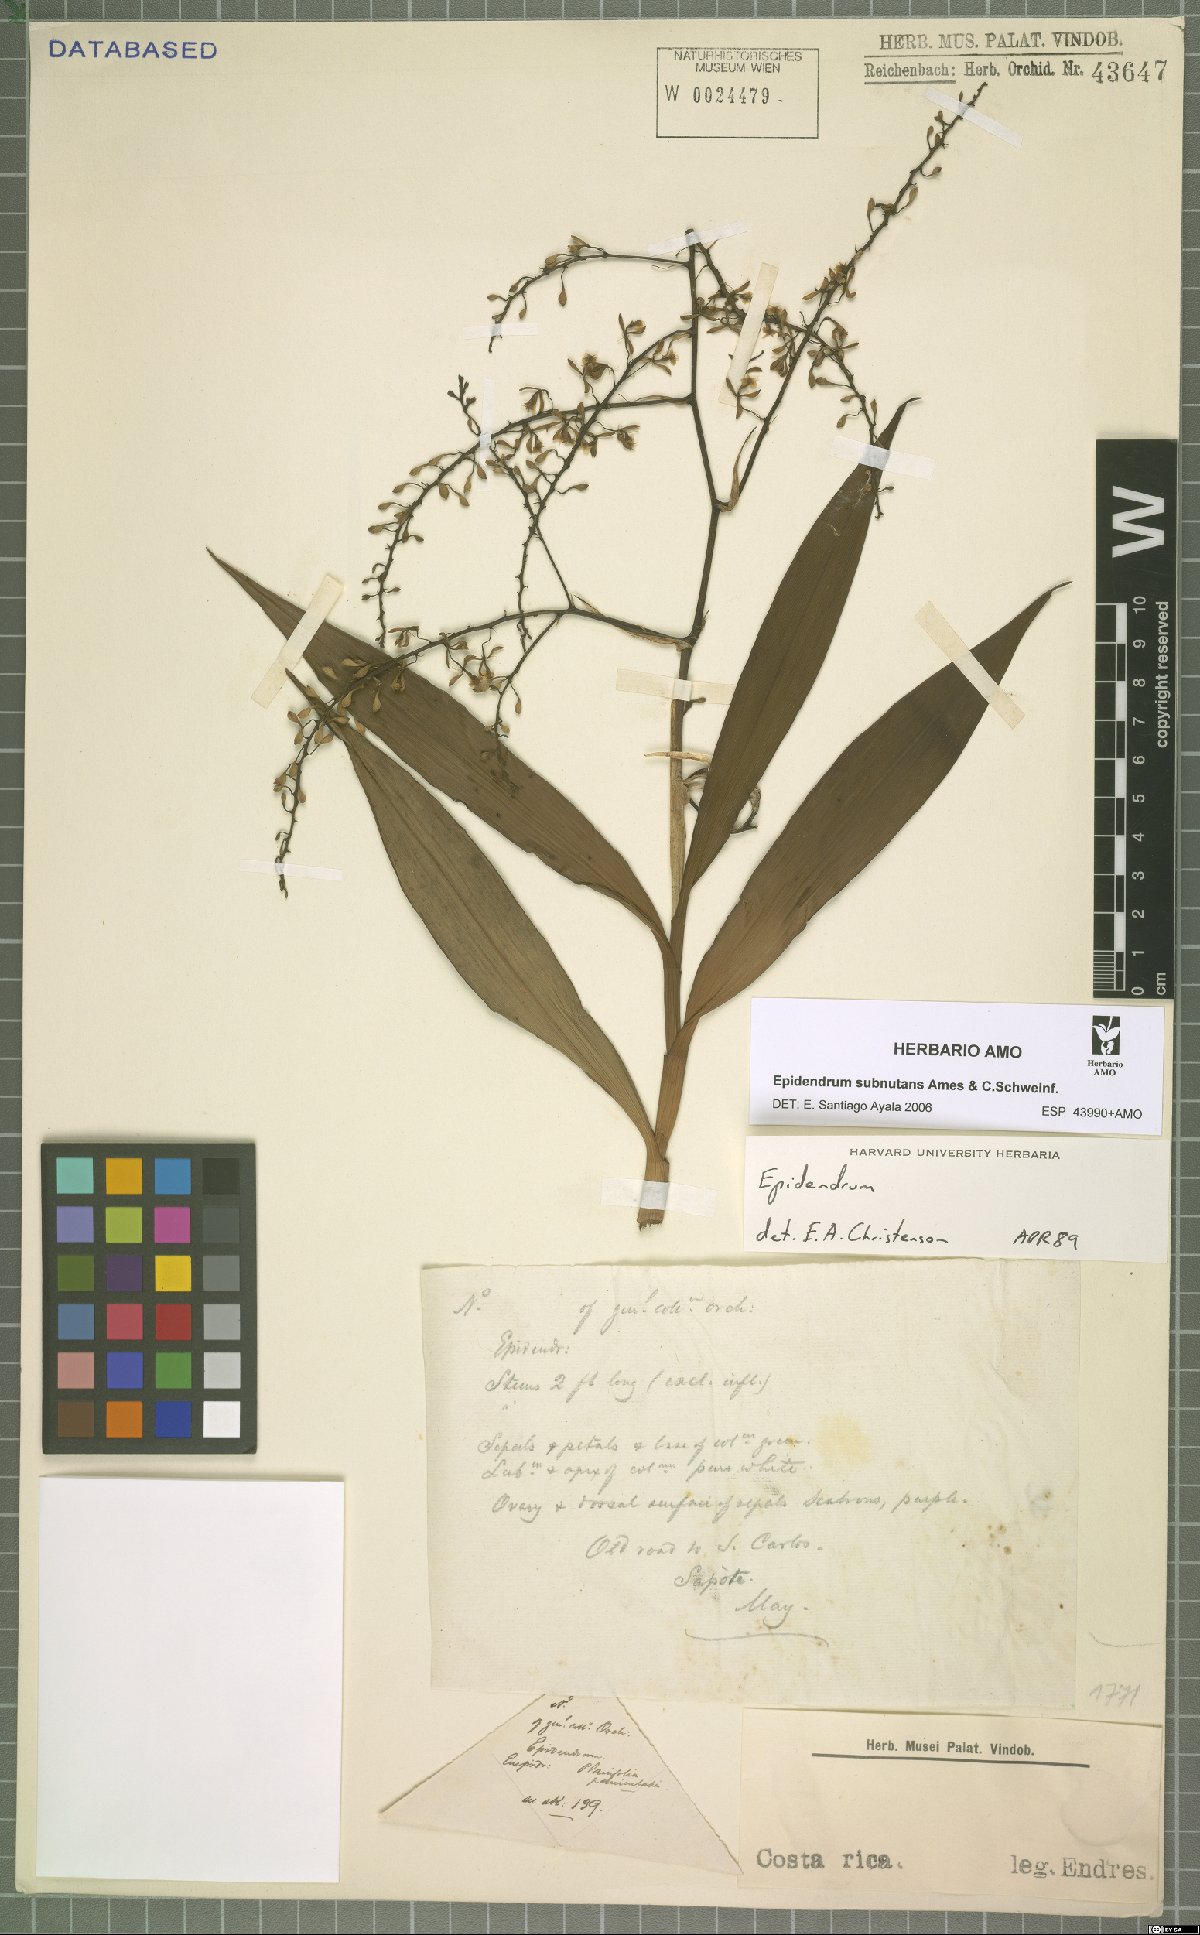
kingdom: Plantae
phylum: Tracheophyta
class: Liliopsida
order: Asparagales
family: Orchidaceae
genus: Epidendrum
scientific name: Epidendrum subnutans
